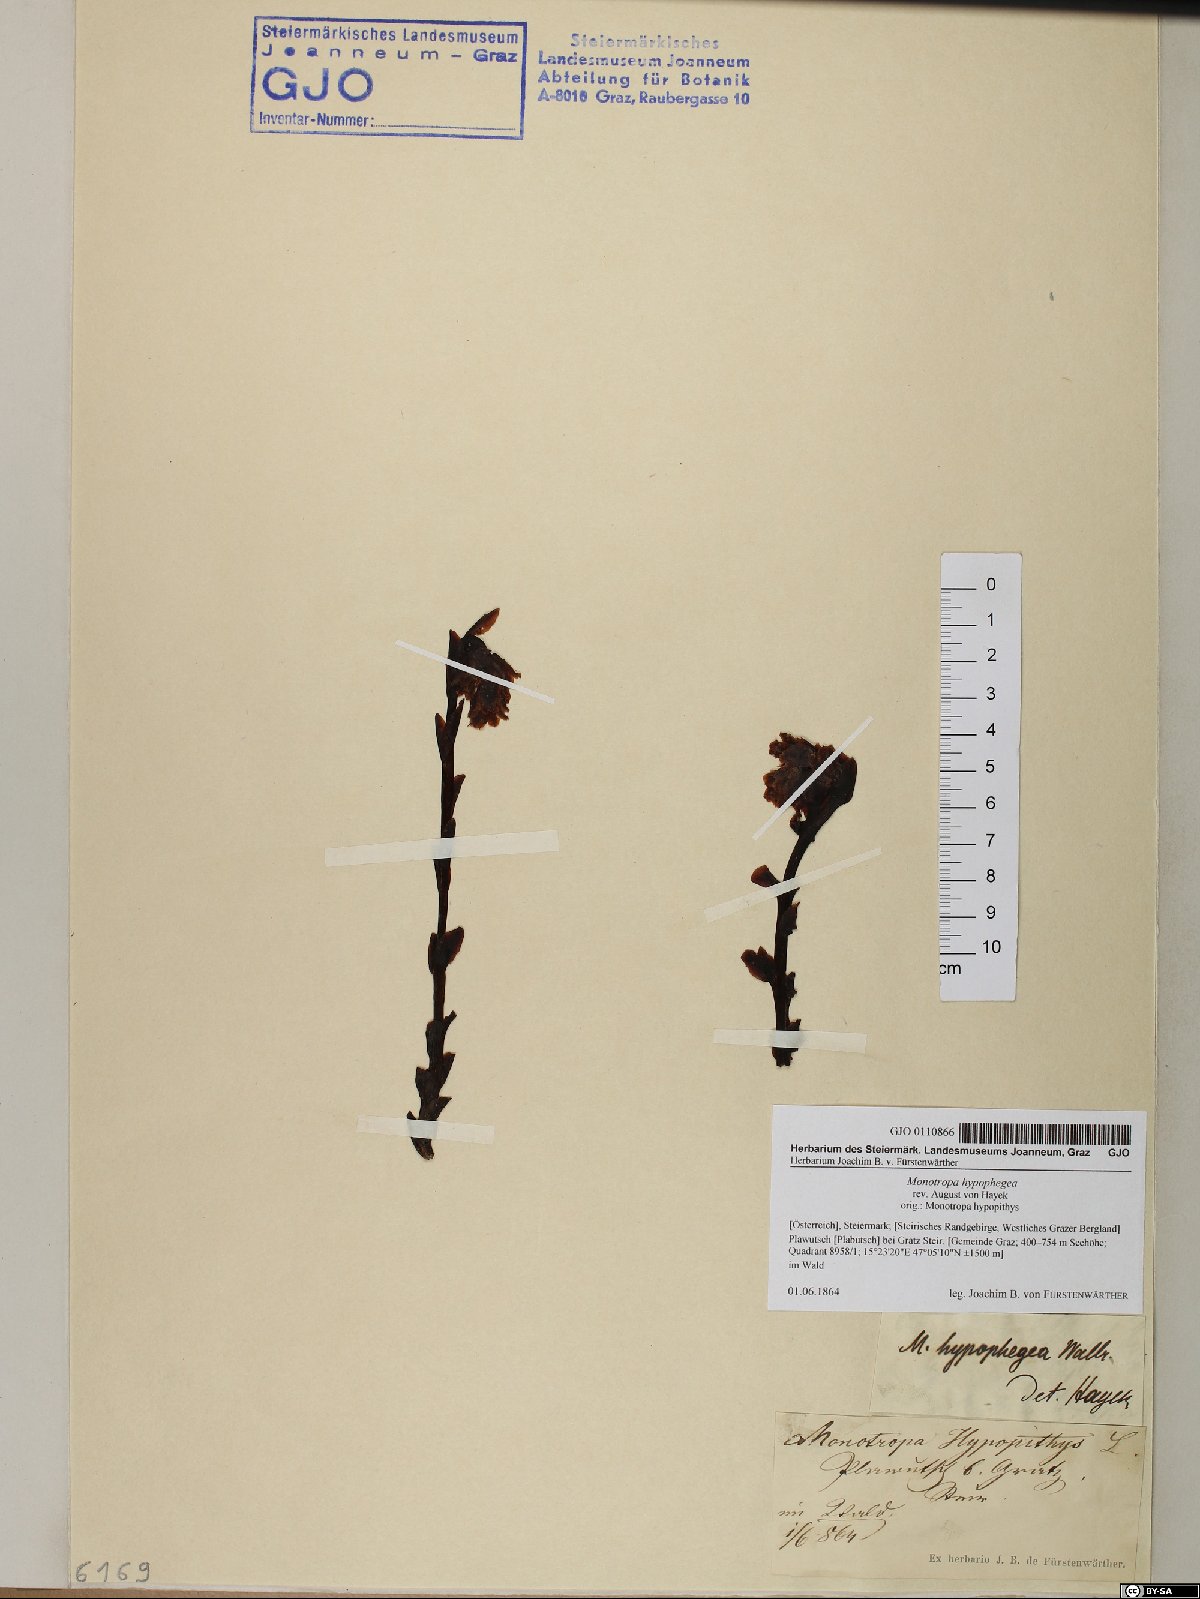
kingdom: Plantae
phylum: Tracheophyta
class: Magnoliopsida
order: Ericales
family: Ericaceae
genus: Hypopitys
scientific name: Hypopitys hypophegea
